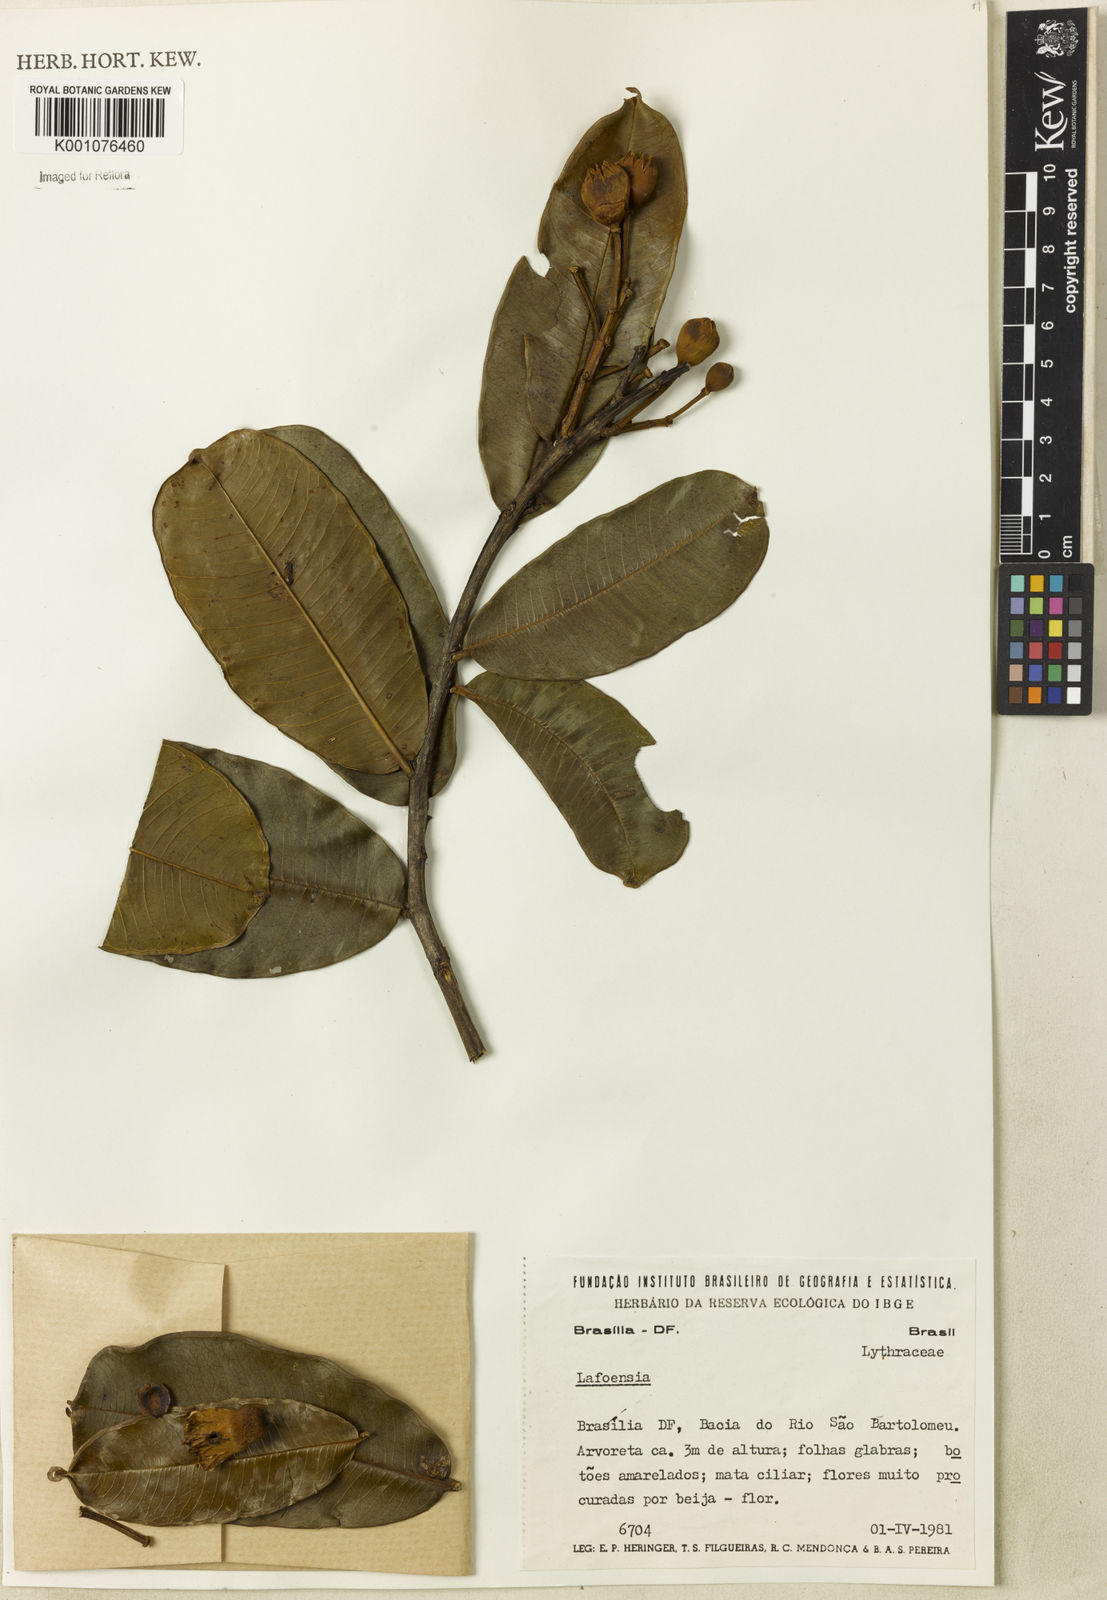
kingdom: Plantae
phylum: Tracheophyta
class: Magnoliopsida
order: Myrtales
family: Lythraceae
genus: Lafoensia
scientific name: Lafoensia
